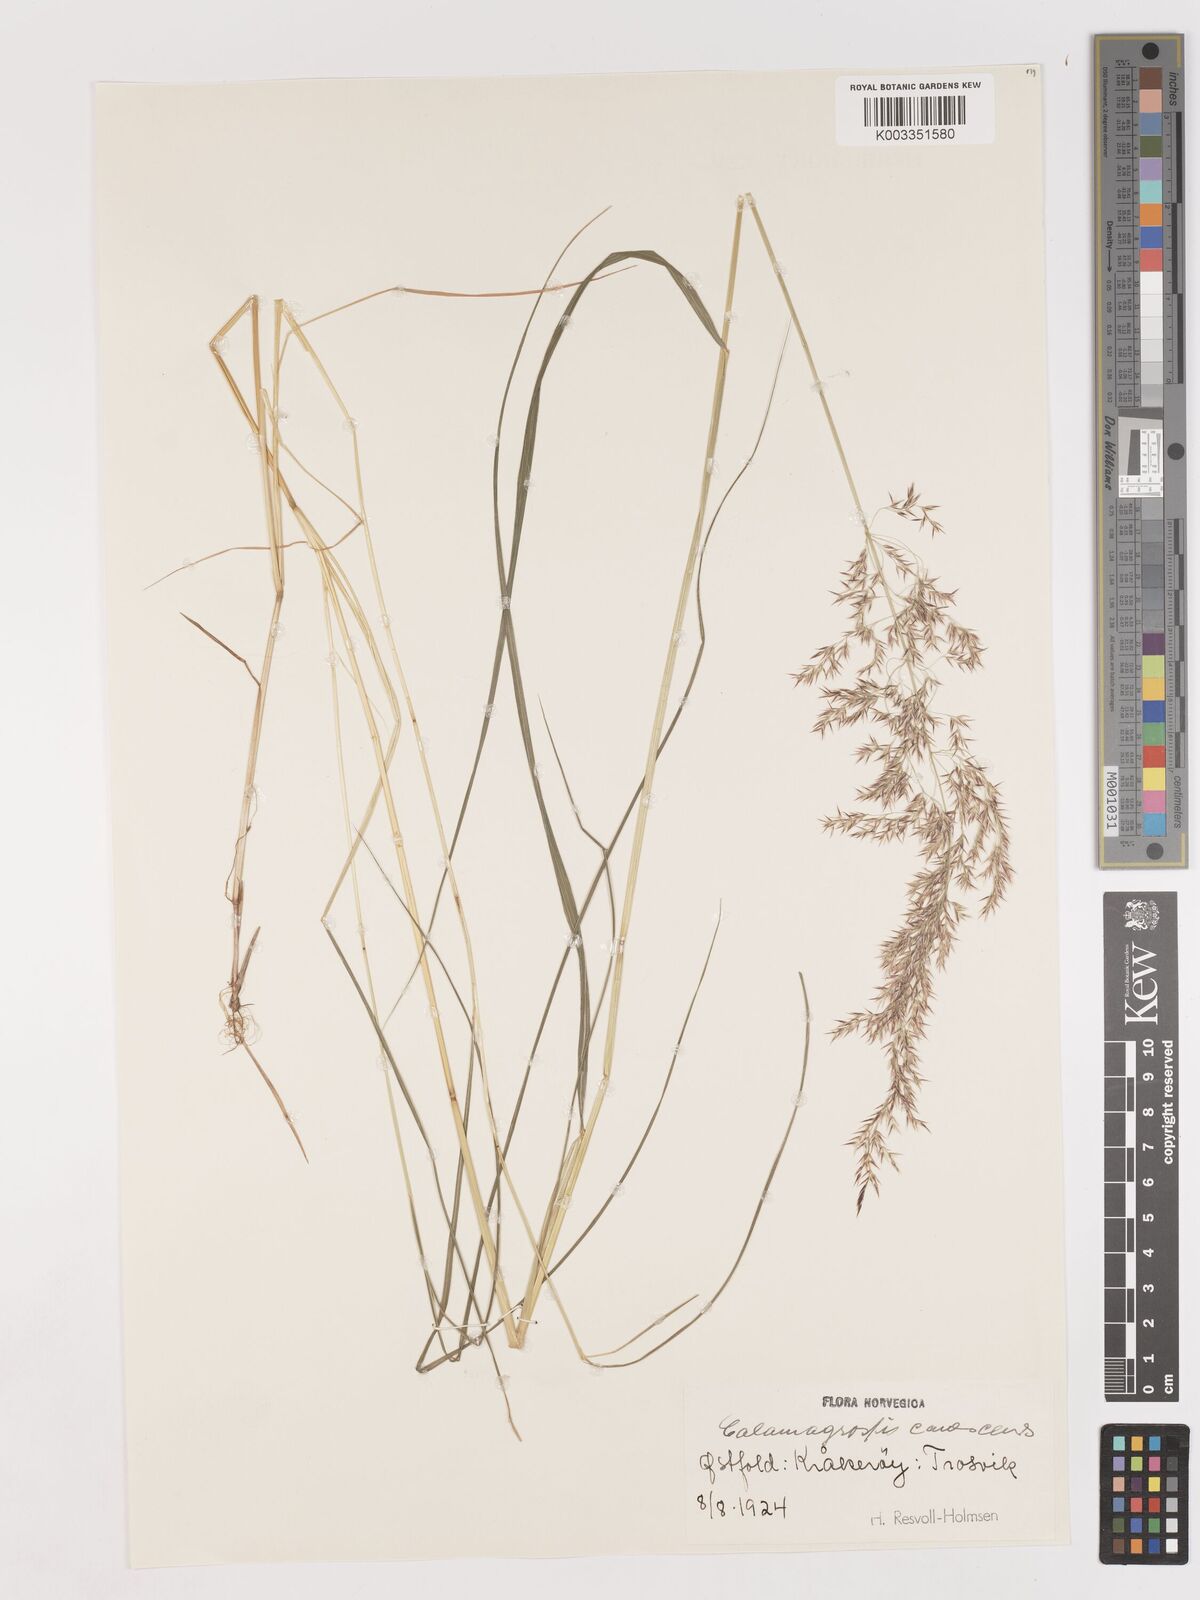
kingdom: Plantae
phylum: Tracheophyta
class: Liliopsida
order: Poales
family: Poaceae
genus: Calamagrostis
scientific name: Calamagrostis canescens
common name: Purple small-reed
